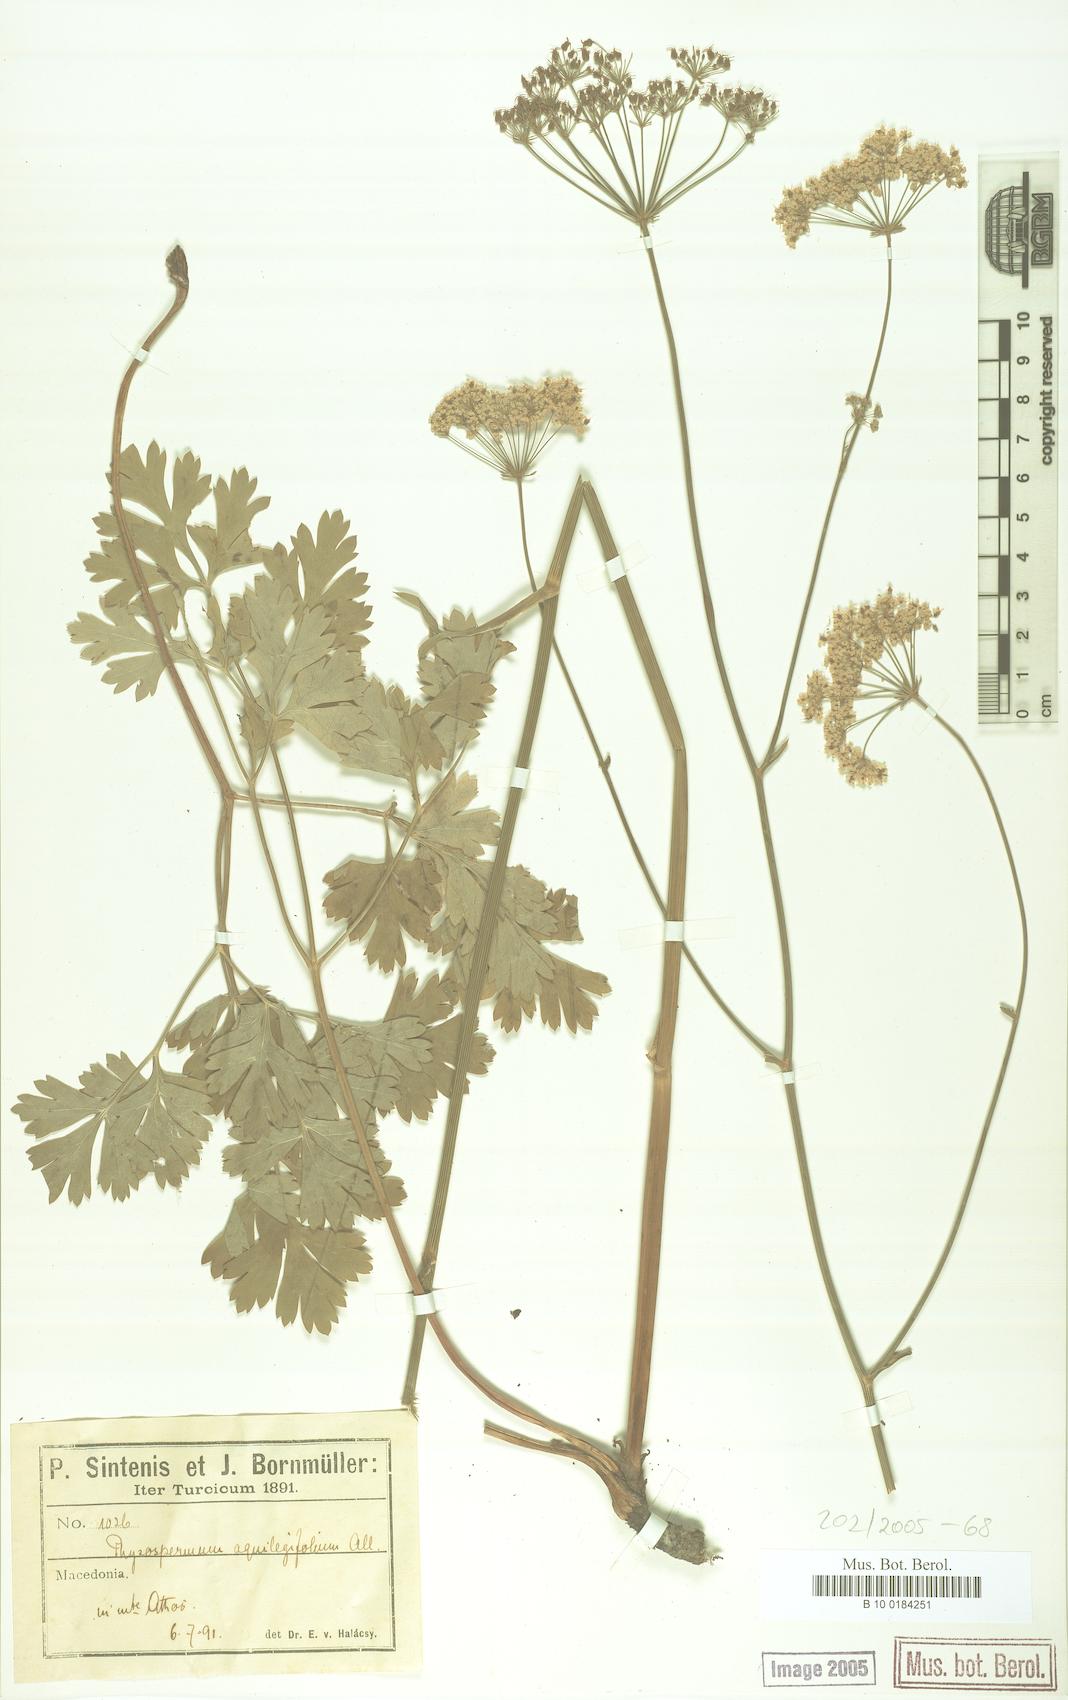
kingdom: Plantae
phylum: Tracheophyta
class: Magnoliopsida
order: Apiales
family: Apiaceae
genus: Physospermum
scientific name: Physospermum cornubiense
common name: Bladderseed
